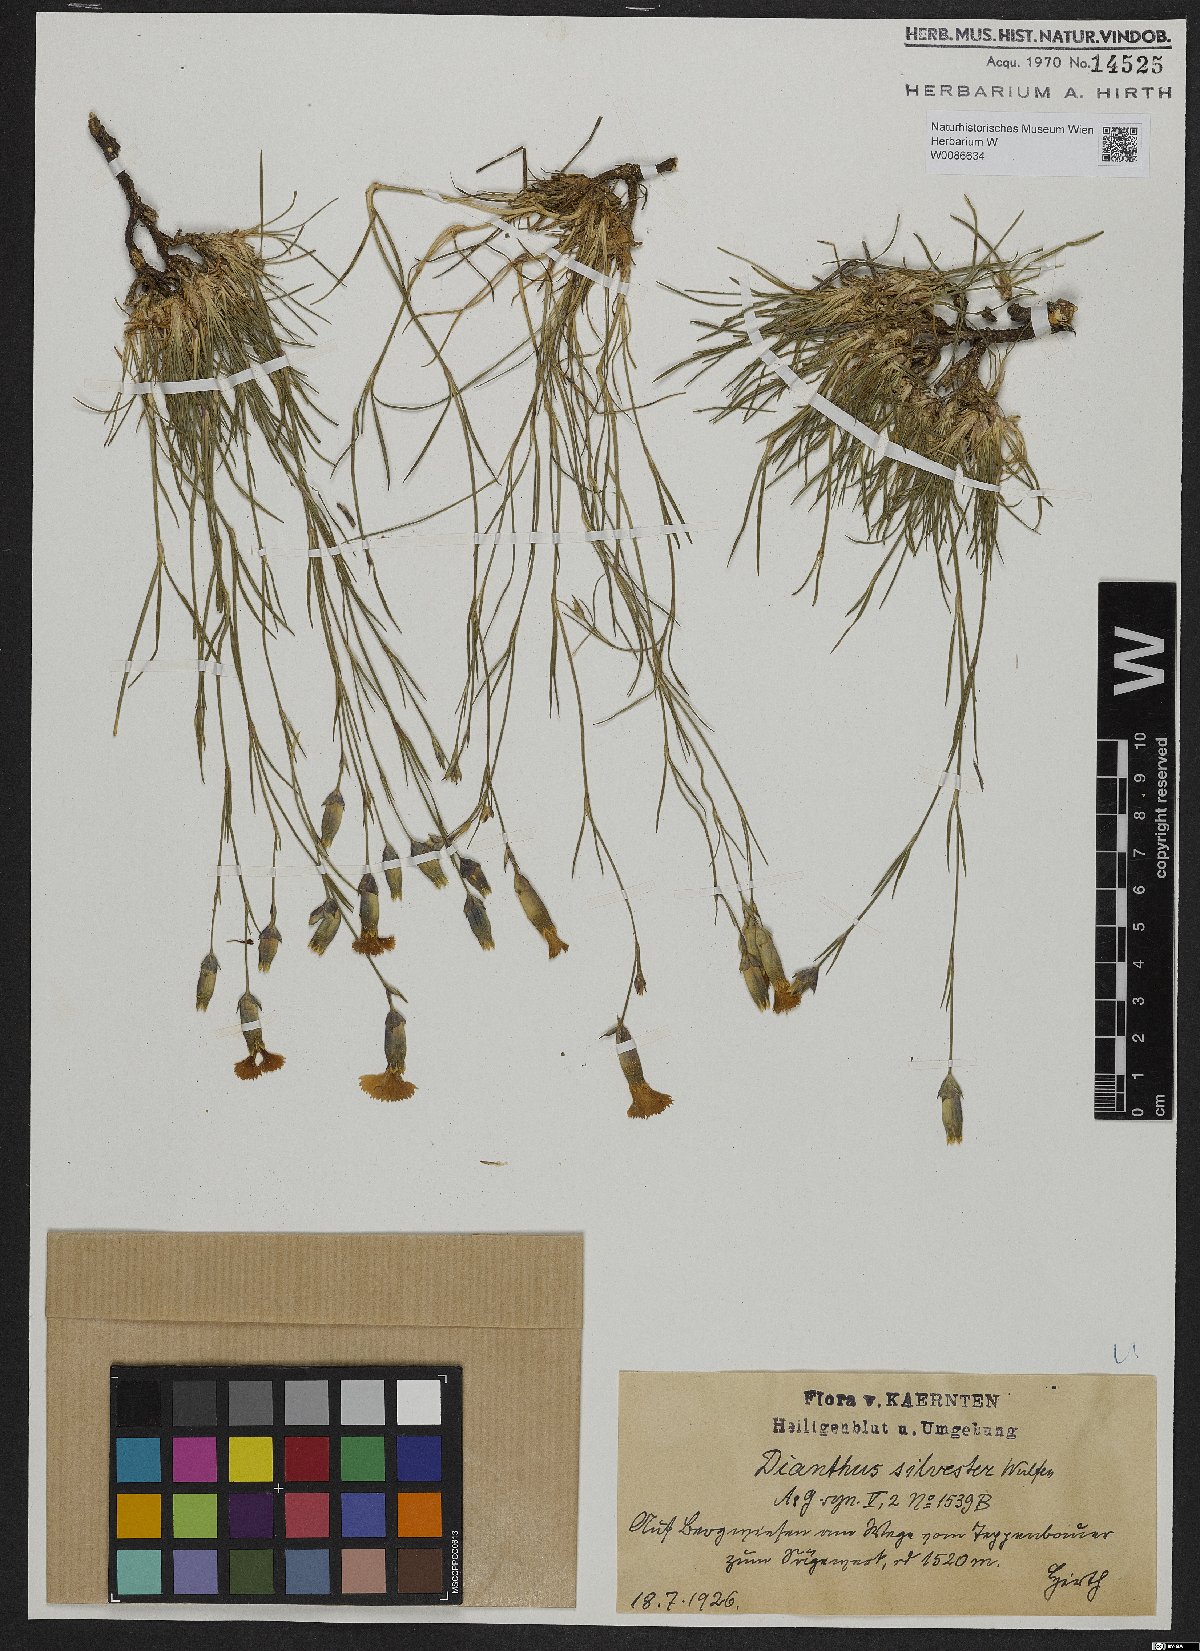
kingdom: Plantae
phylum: Tracheophyta
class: Magnoliopsida
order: Caryophyllales
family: Caryophyllaceae
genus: Dianthus
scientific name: Dianthus sylvestris
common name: Wood pink
